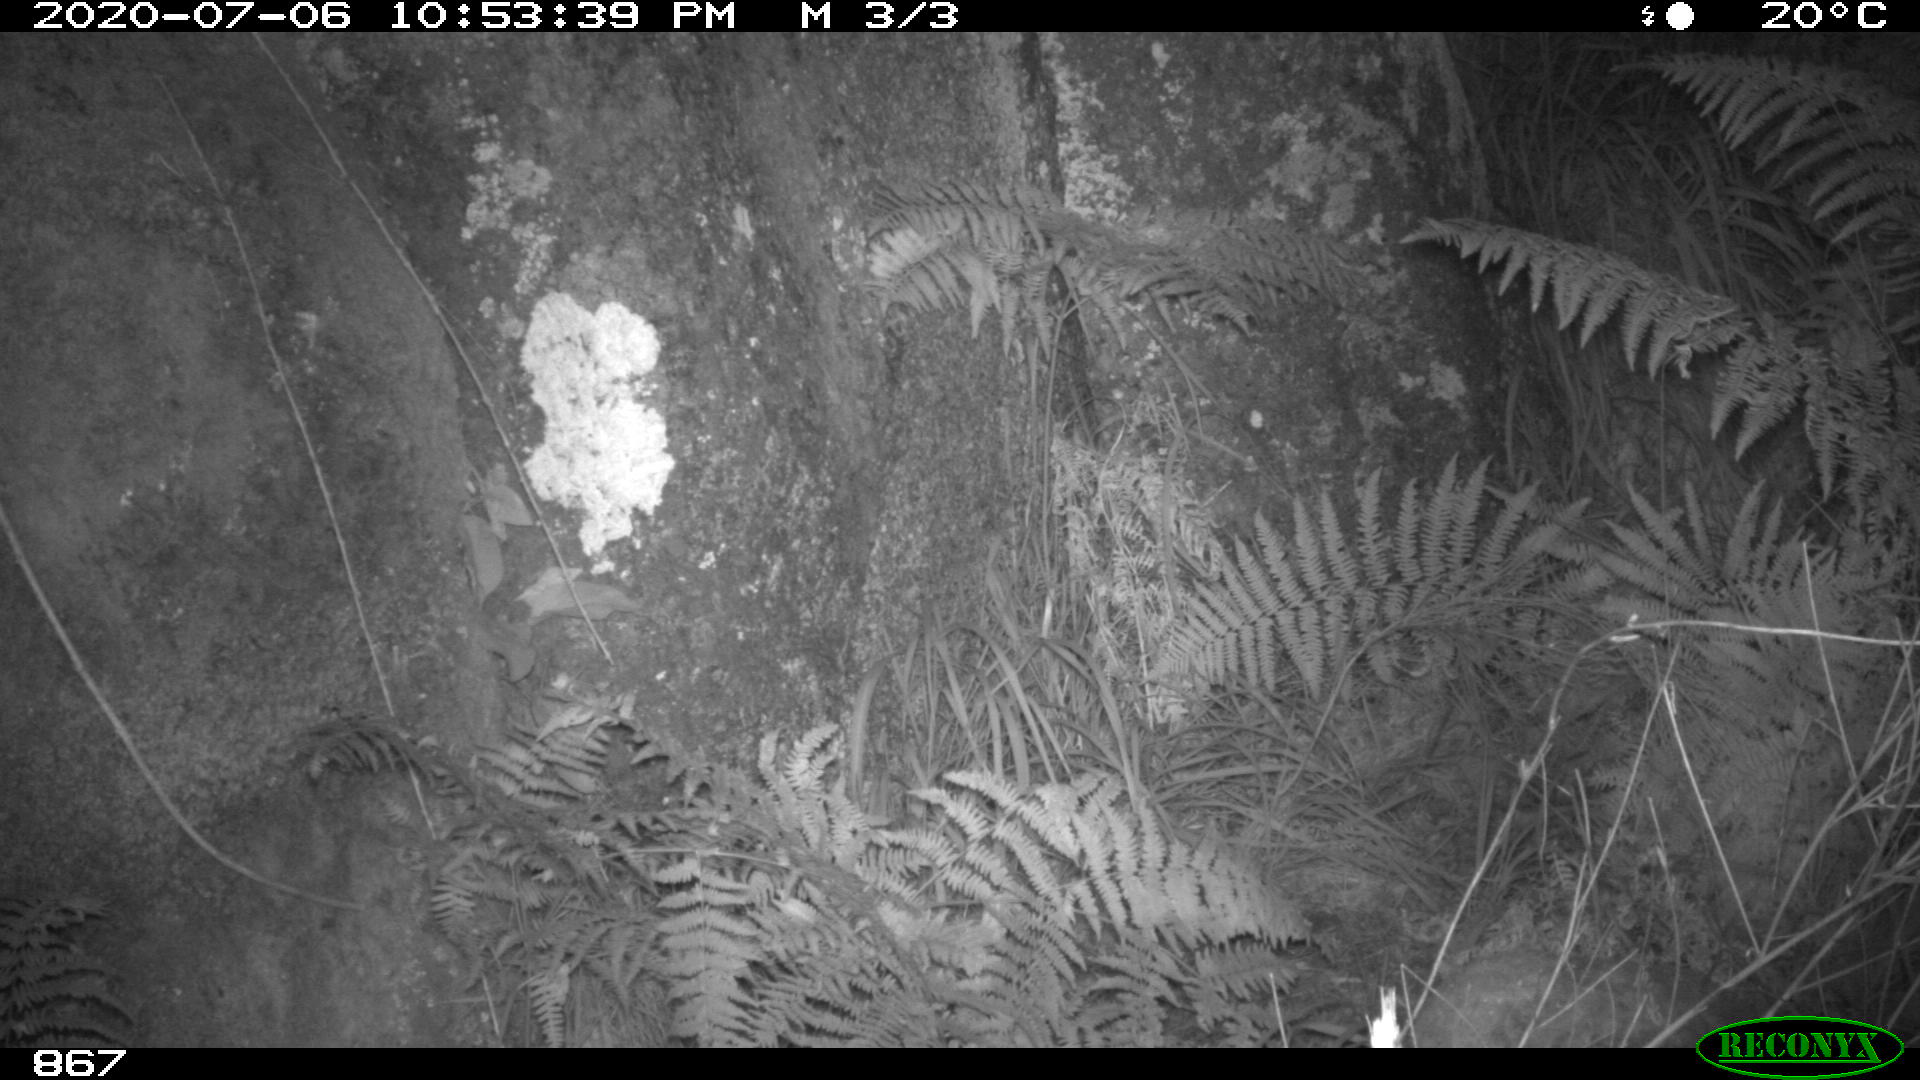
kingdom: Animalia
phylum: Chordata
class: Mammalia
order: Artiodactyla
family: Suidae
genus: Sus
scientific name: Sus scrofa
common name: Wild boar
